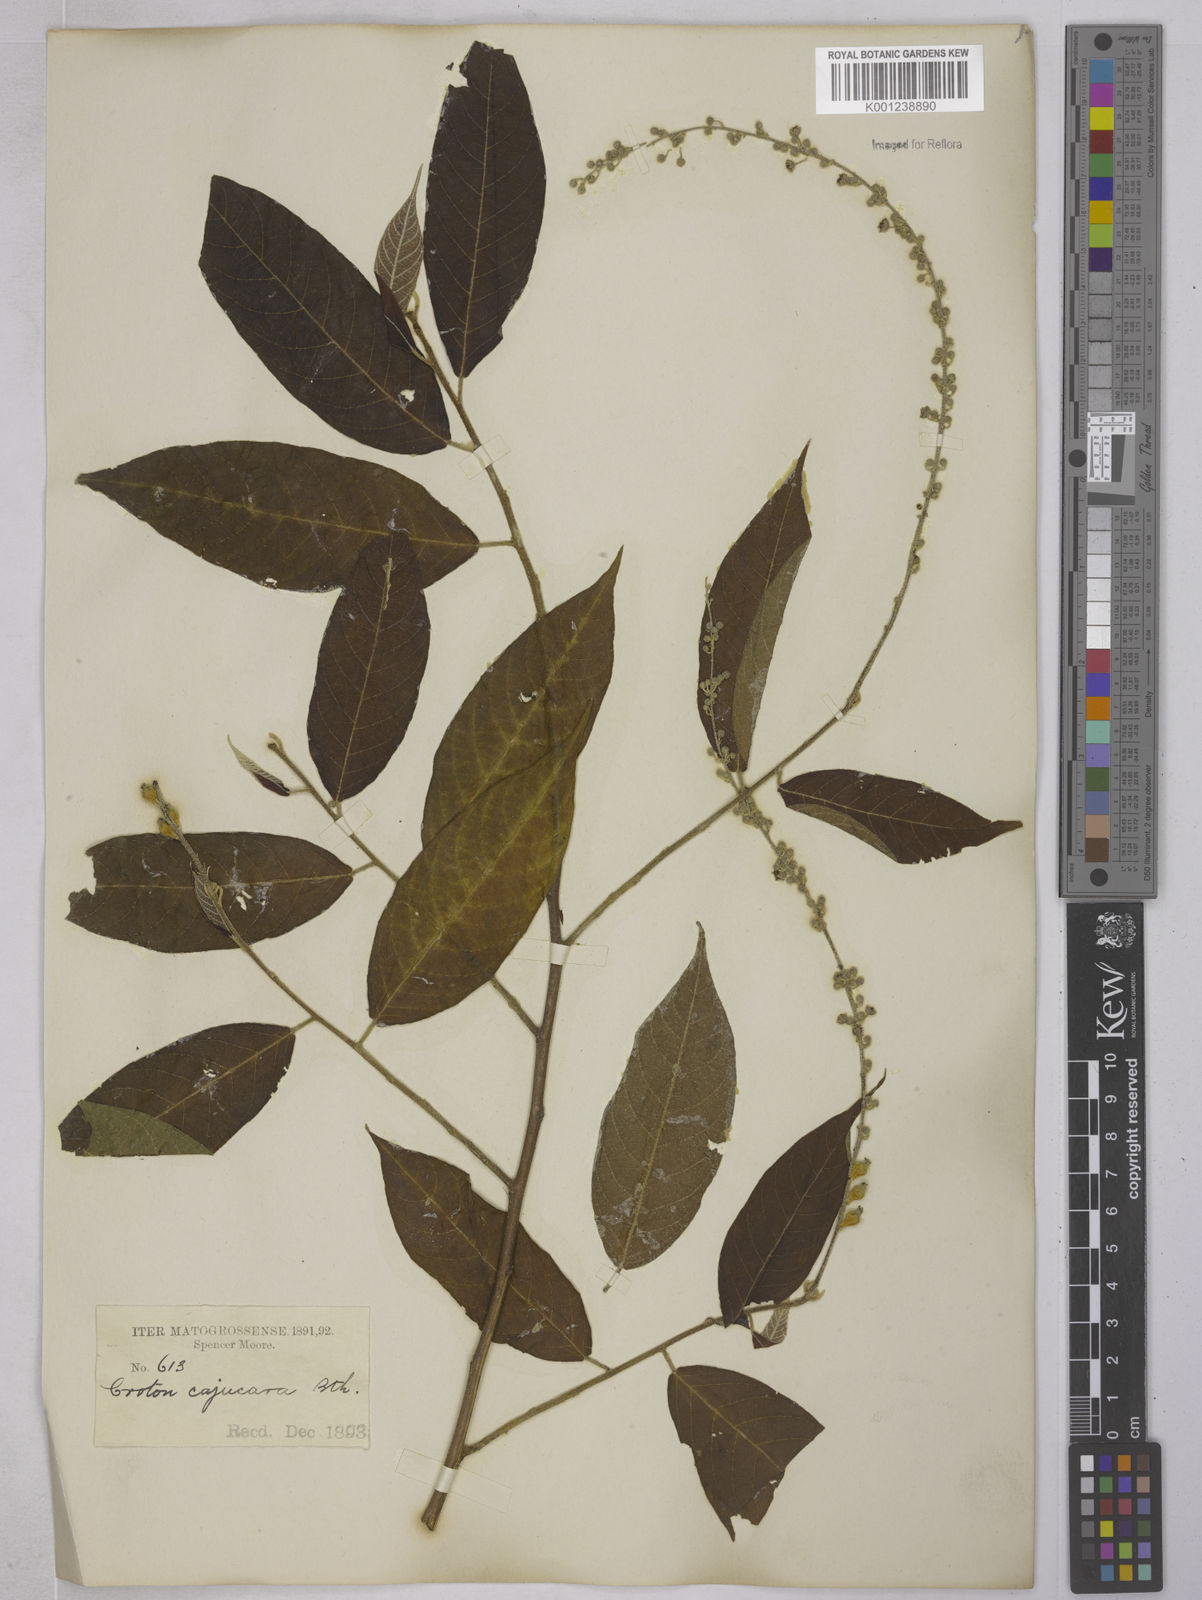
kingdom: Plantae
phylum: Tracheophyta
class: Magnoliopsida
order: Malpighiales
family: Euphorbiaceae
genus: Croton
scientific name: Croton cajucara
